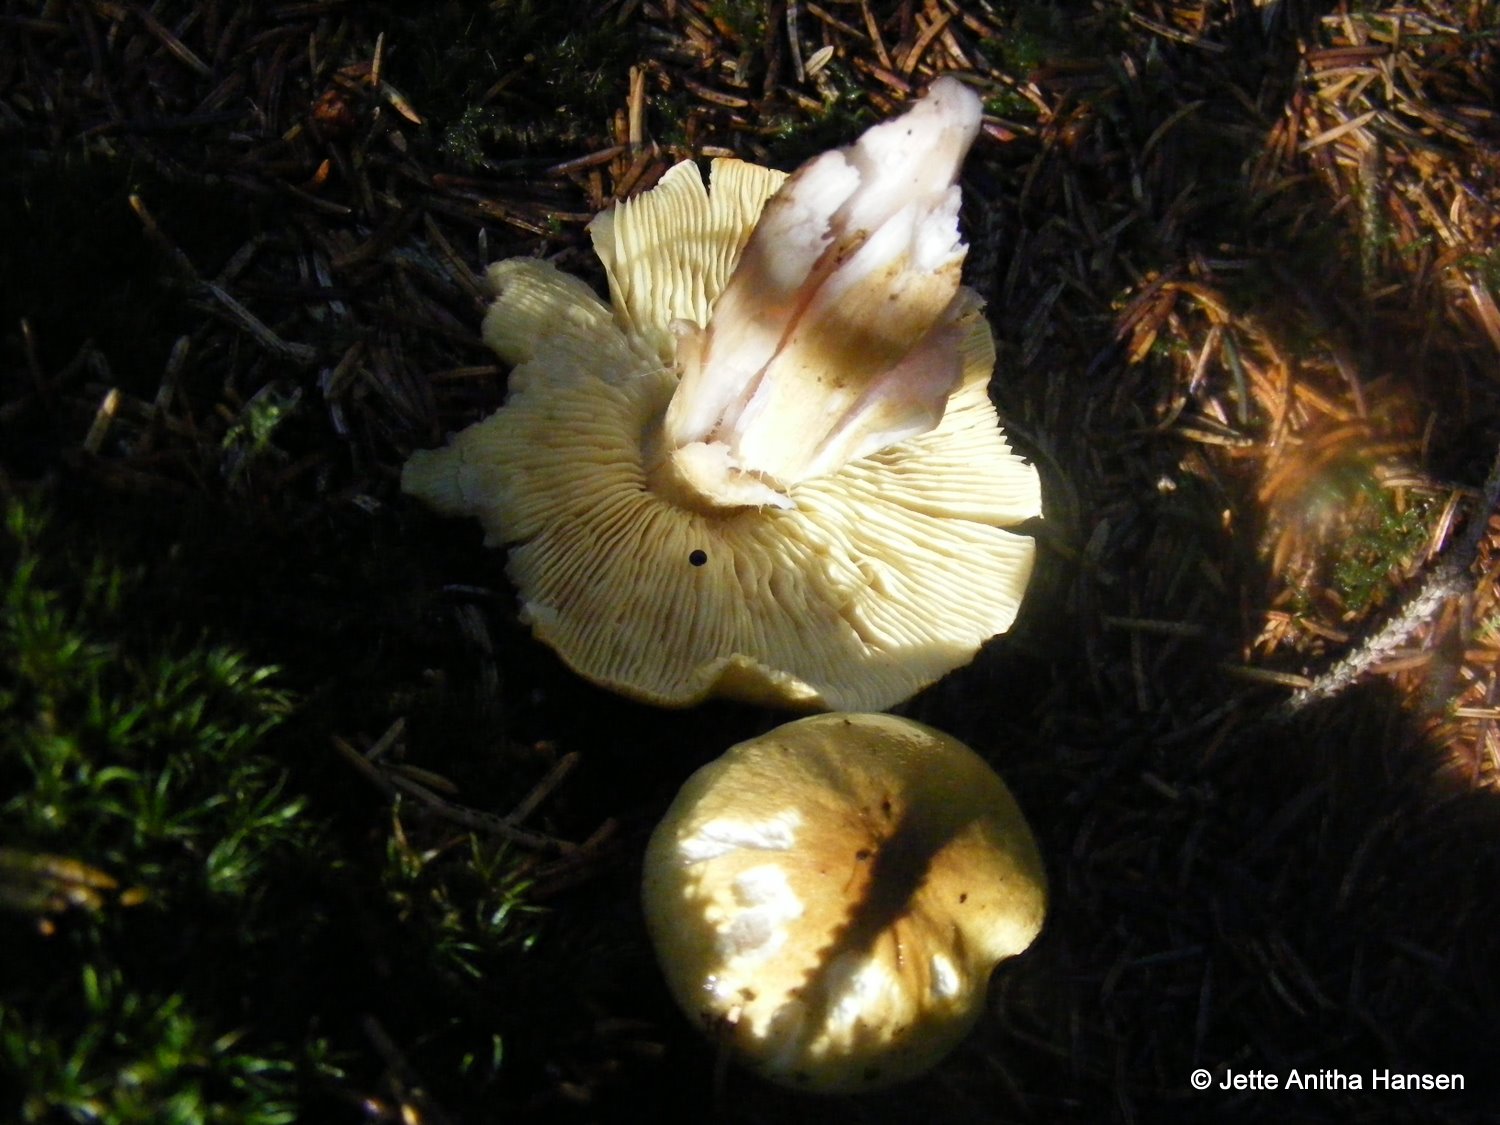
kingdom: Fungi
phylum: Basidiomycota
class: Agaricomycetes
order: Agaricales
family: Tricholomataceae
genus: Tricholoma
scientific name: Tricholoma aestuans
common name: kegle-ridderhat
